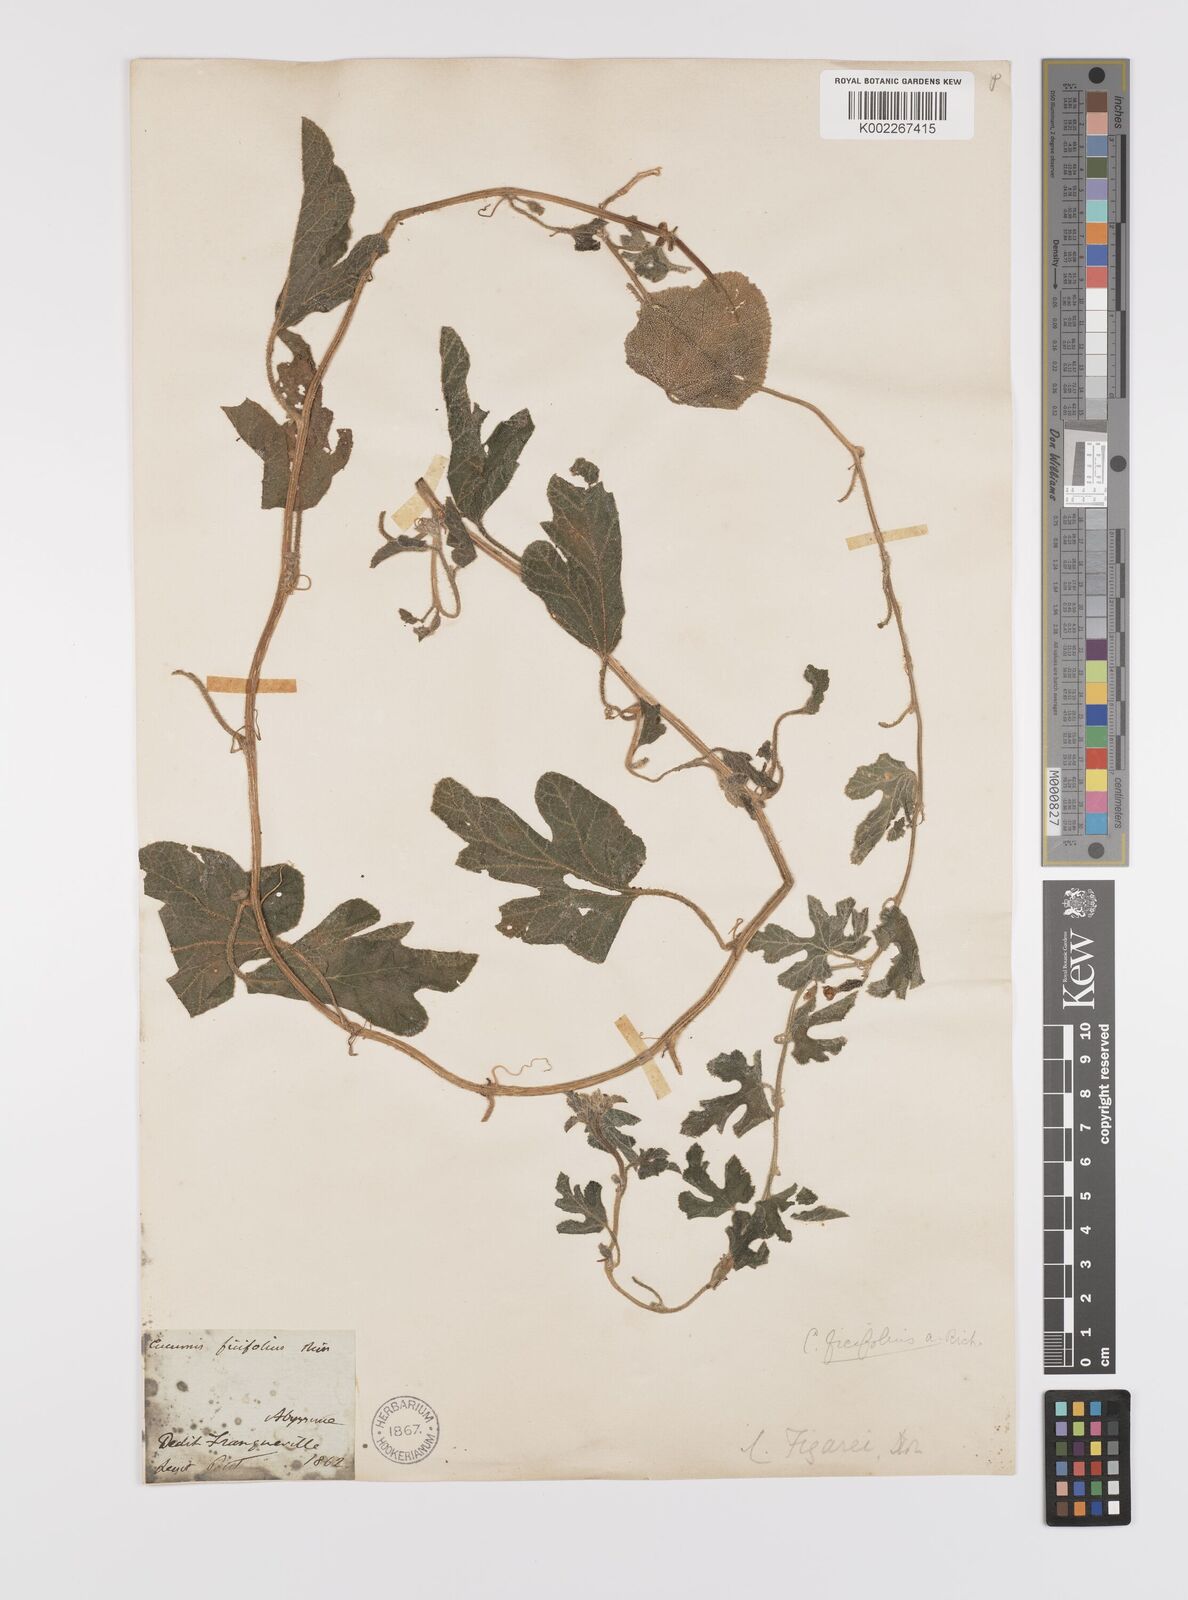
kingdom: Plantae
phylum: Tracheophyta
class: Magnoliopsida
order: Cucurbitales
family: Cucurbitaceae
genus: Cucumis
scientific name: Cucumis ficifolius
